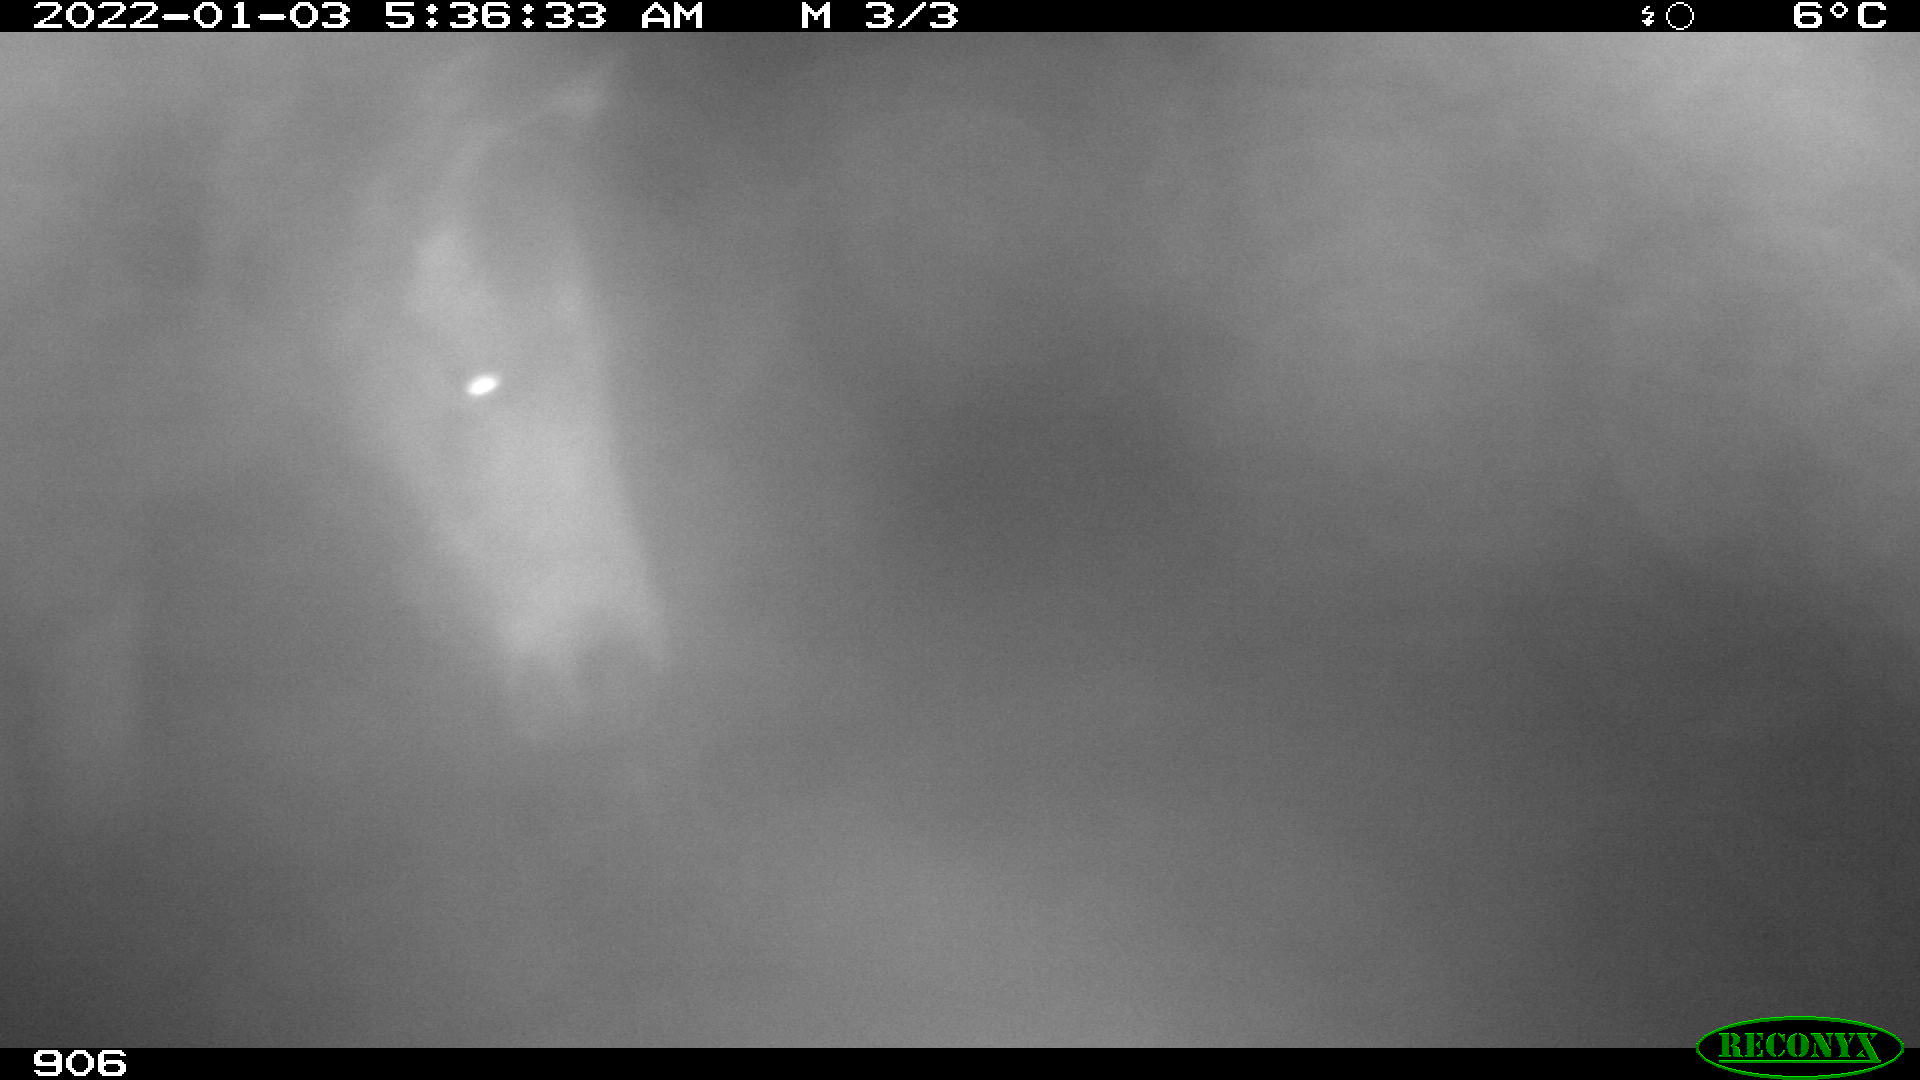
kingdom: Animalia
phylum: Chordata
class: Mammalia
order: Perissodactyla
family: Equidae
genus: Equus
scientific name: Equus caballus
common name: Horse
